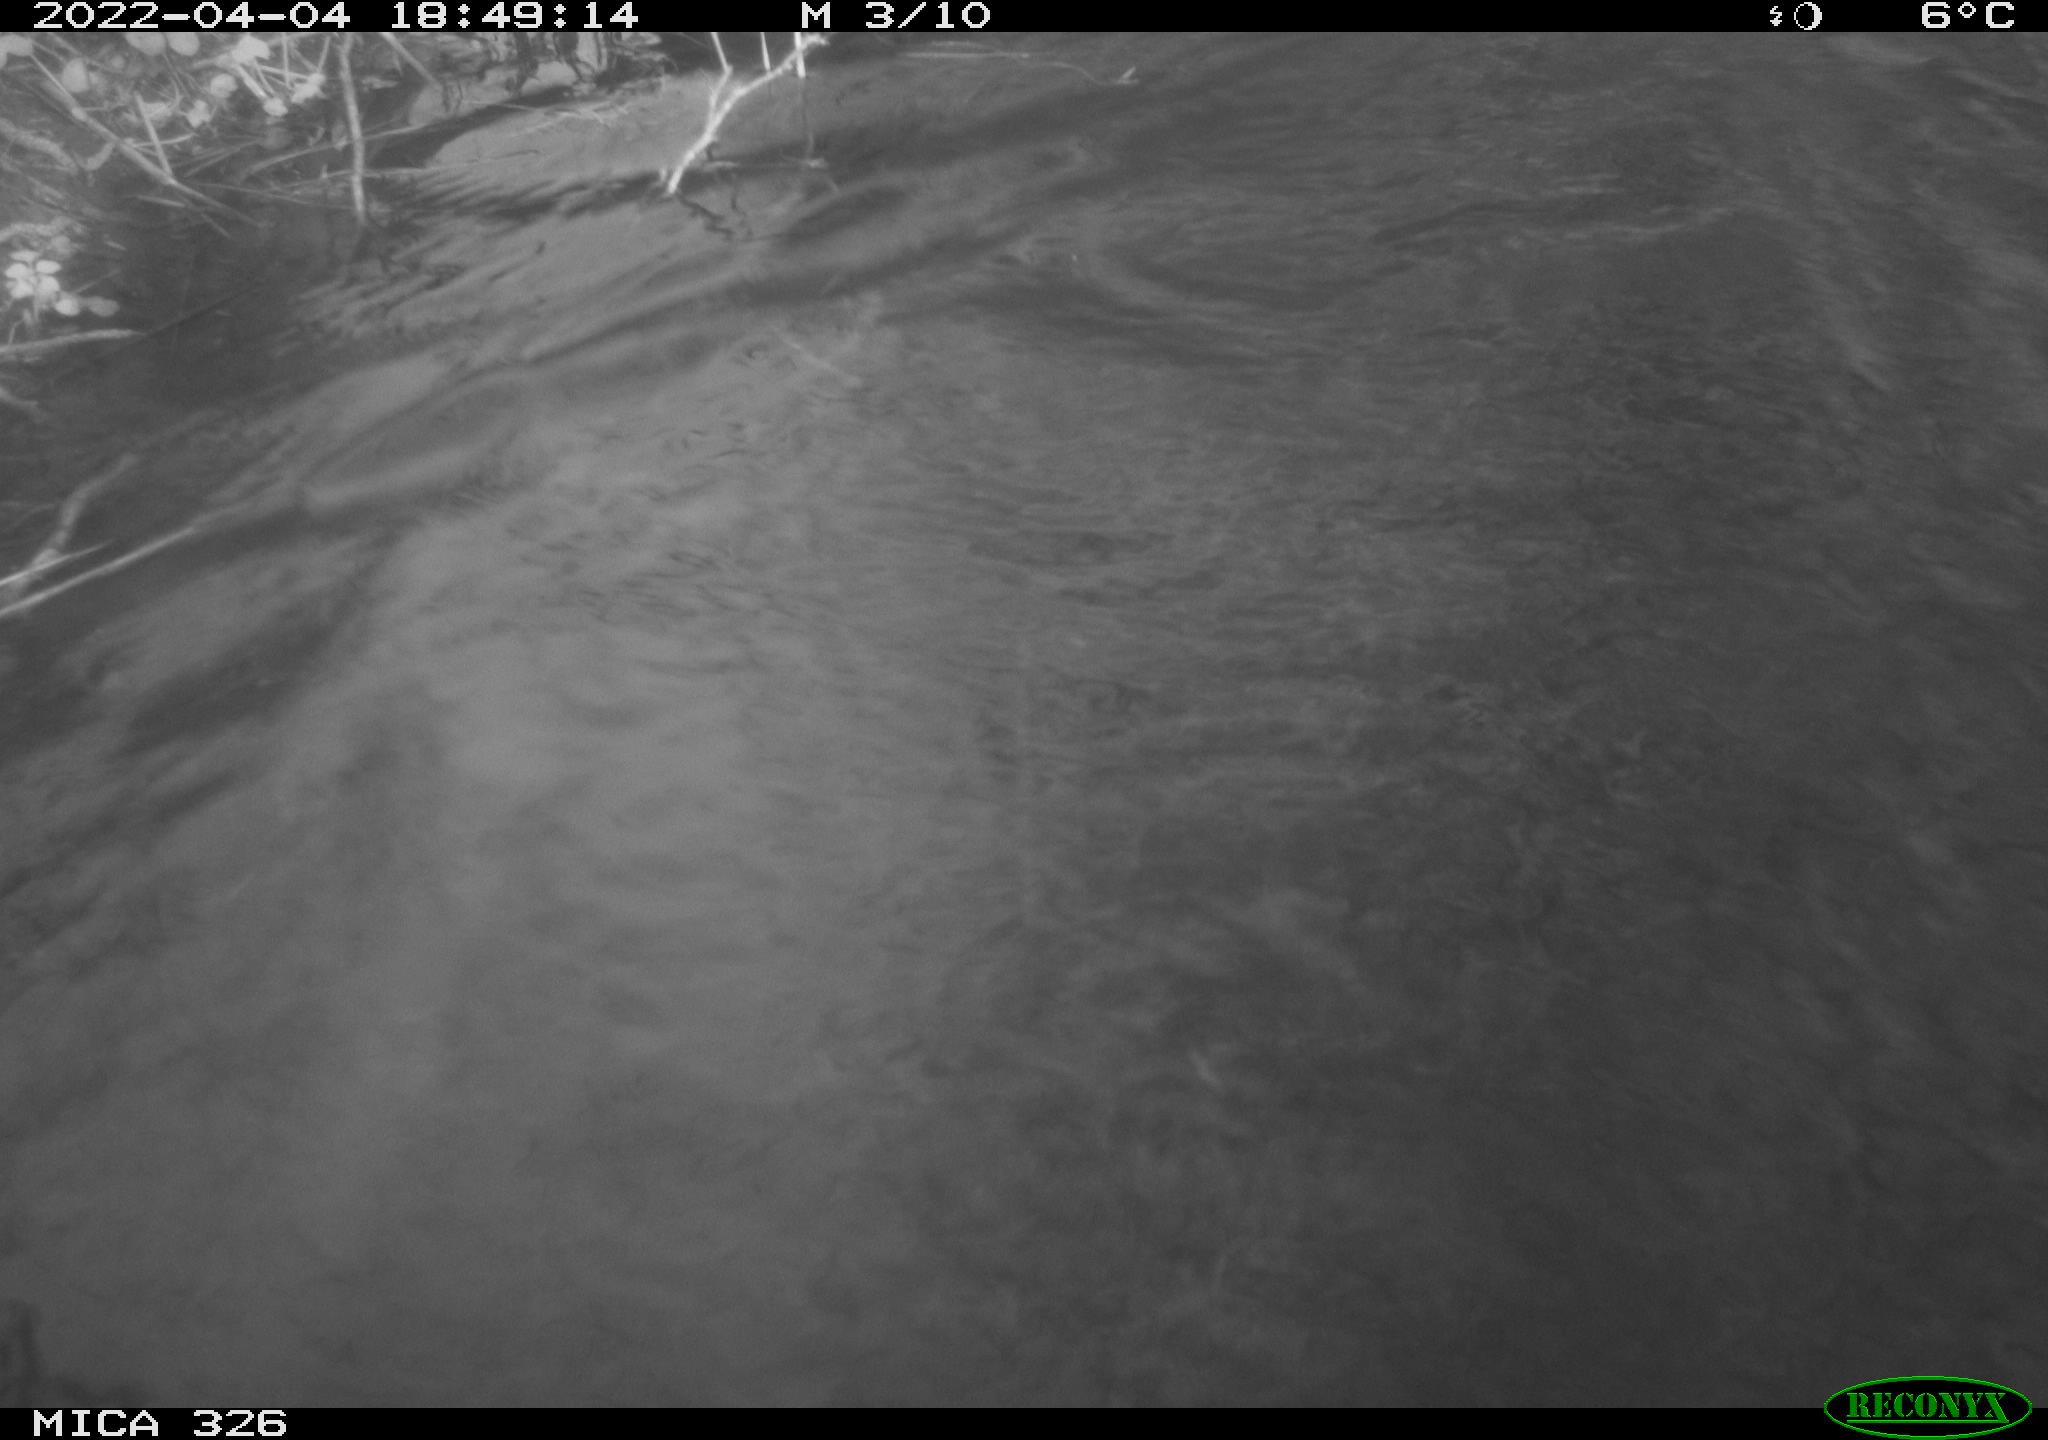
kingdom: Animalia
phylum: Chordata
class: Mammalia
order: Rodentia
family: Cricetidae
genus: Ondatra
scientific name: Ondatra zibethicus
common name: Muskrat
